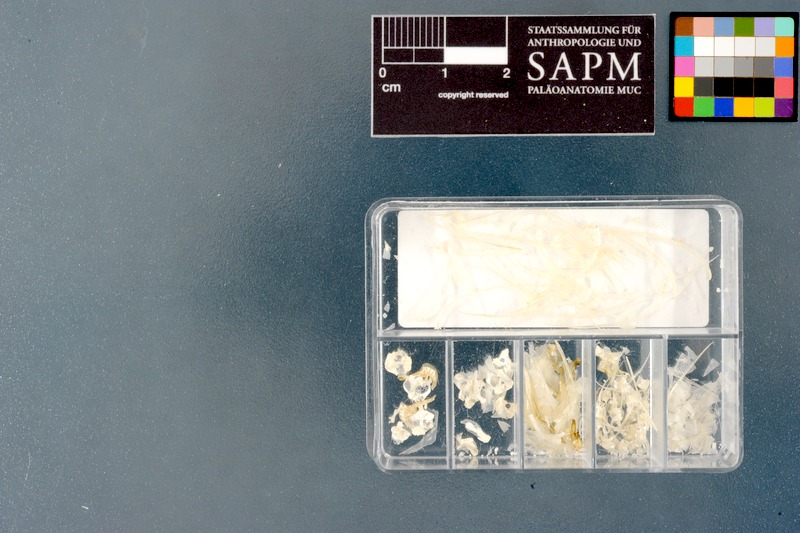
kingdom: Animalia
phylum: Chordata
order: Cypriniformes
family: Cyprinidae
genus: Trigonostigma
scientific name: Trigonostigma somphongsi
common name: Somphongs’s rasbora
